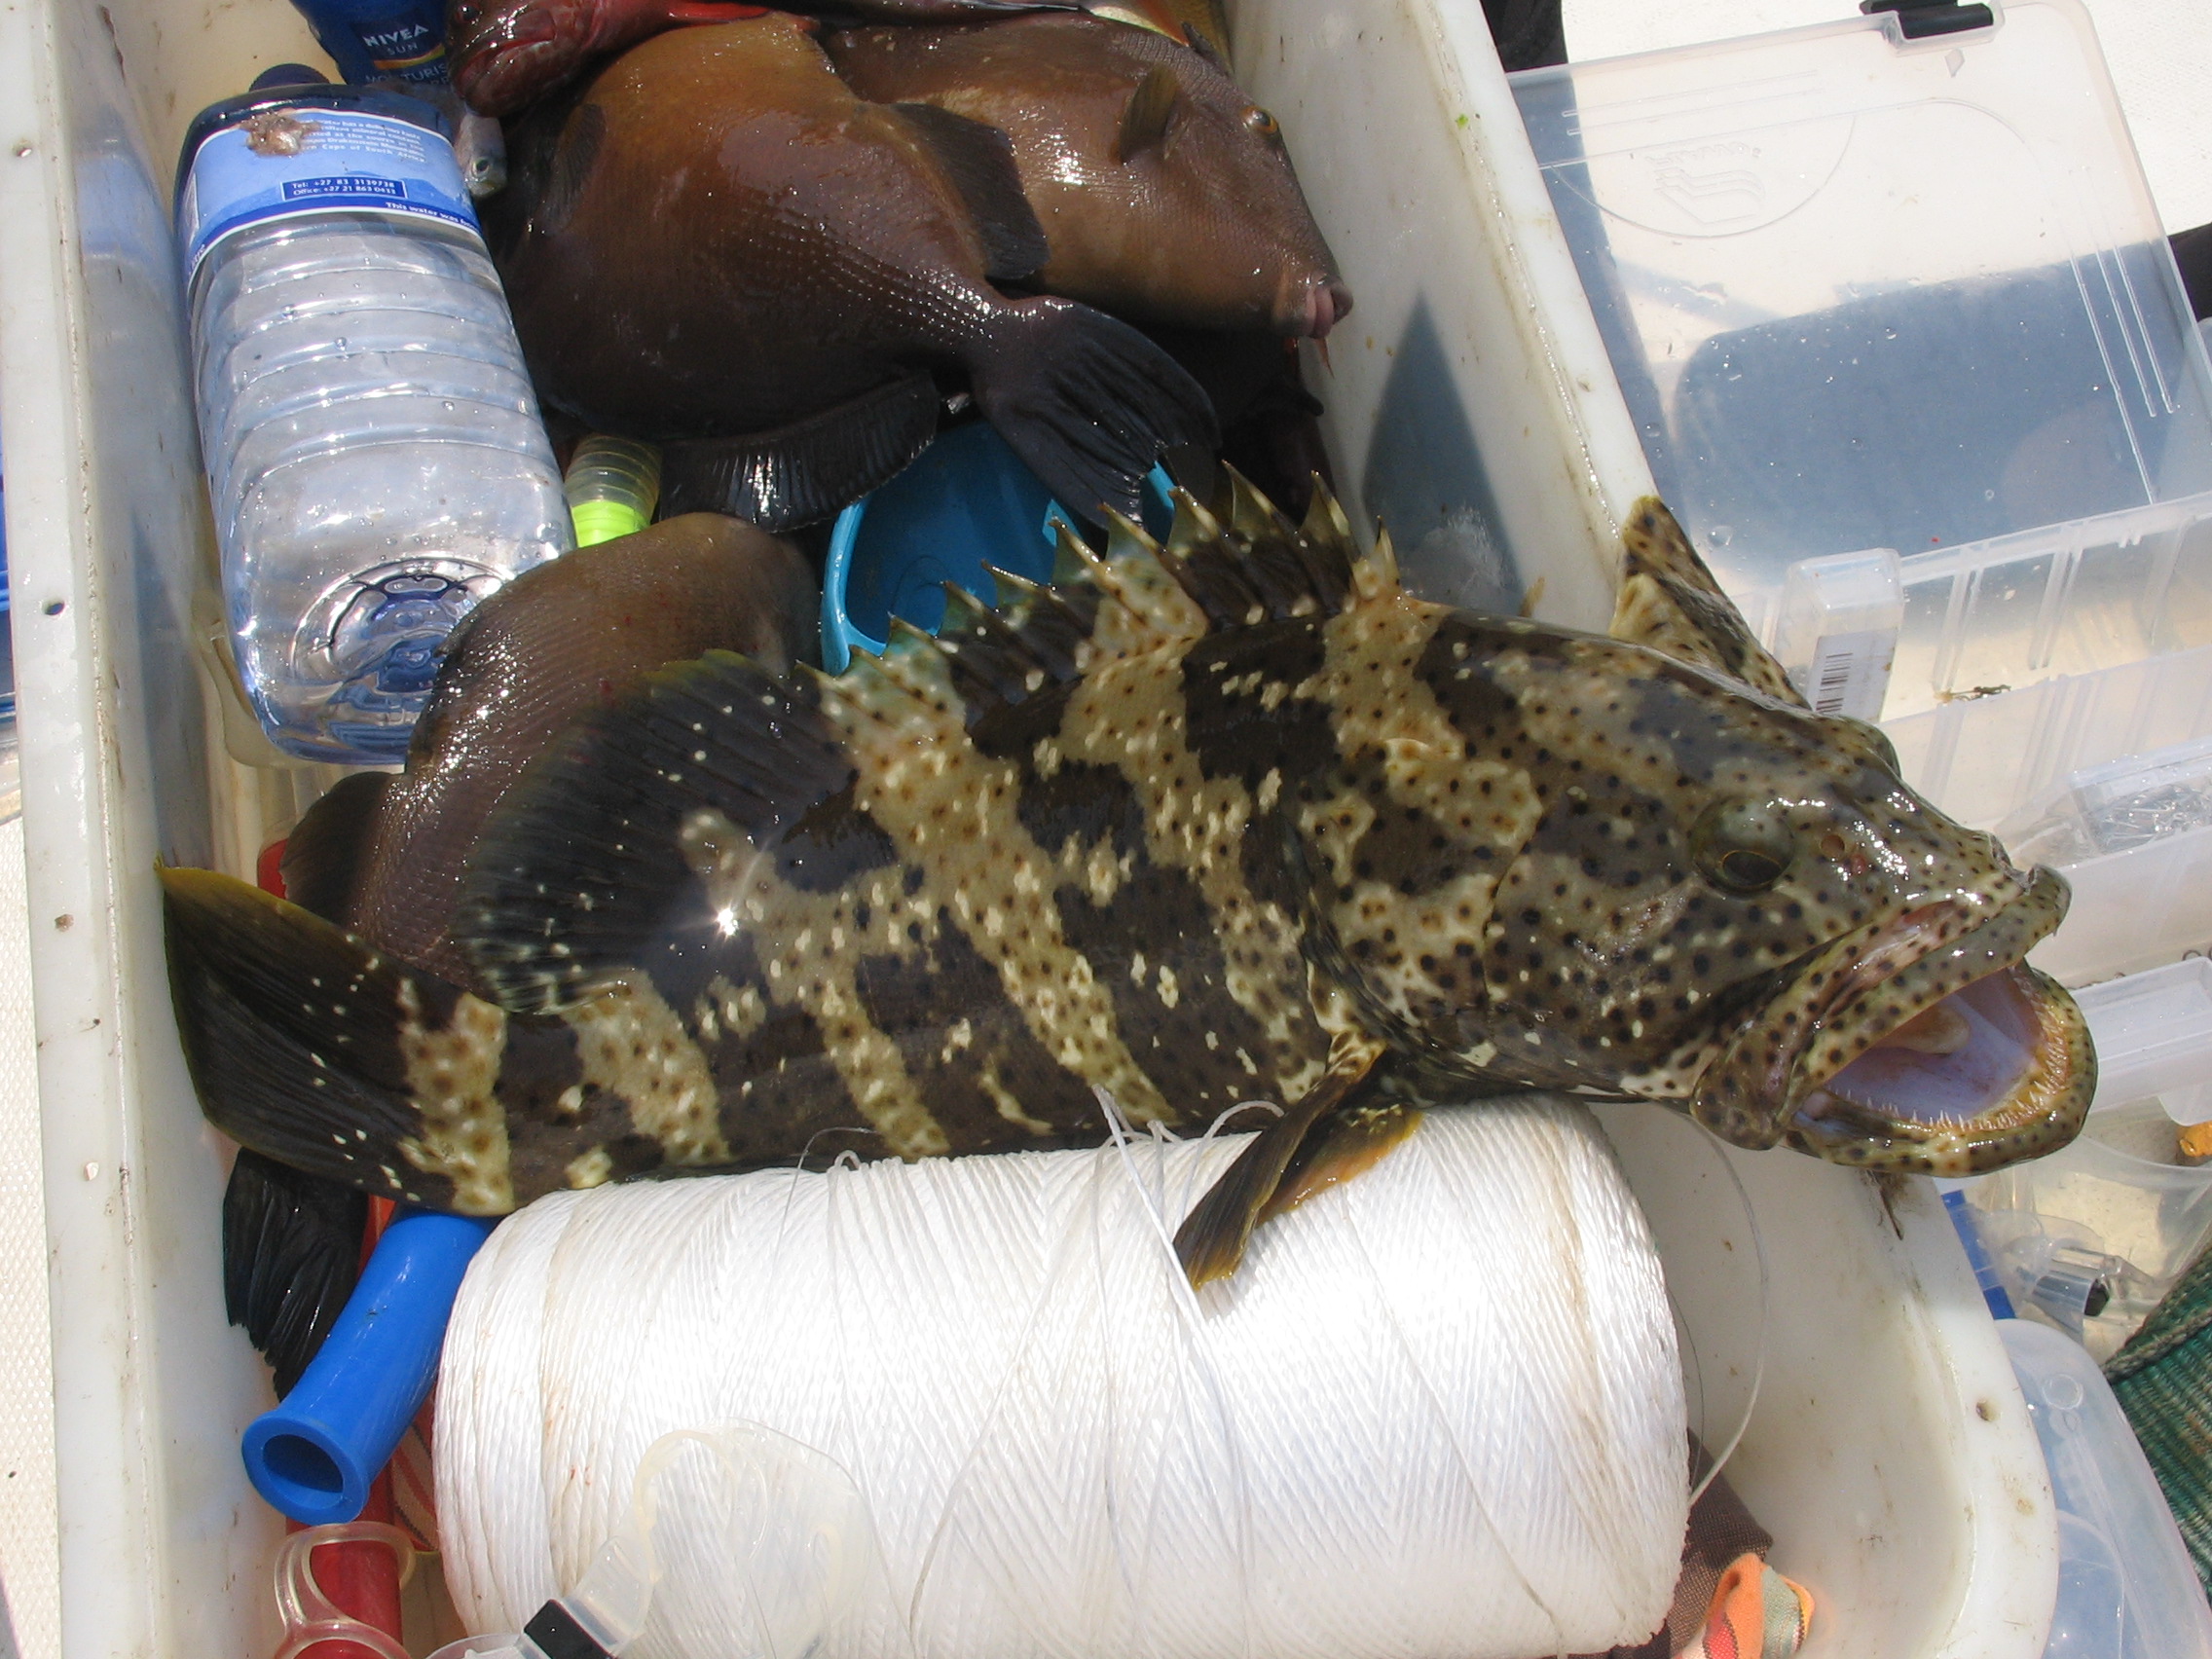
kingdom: Animalia
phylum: Chordata
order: Perciformes
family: Serranidae
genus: Epinephelus
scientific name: Epinephelus malabaricus
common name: Malabar grouper
